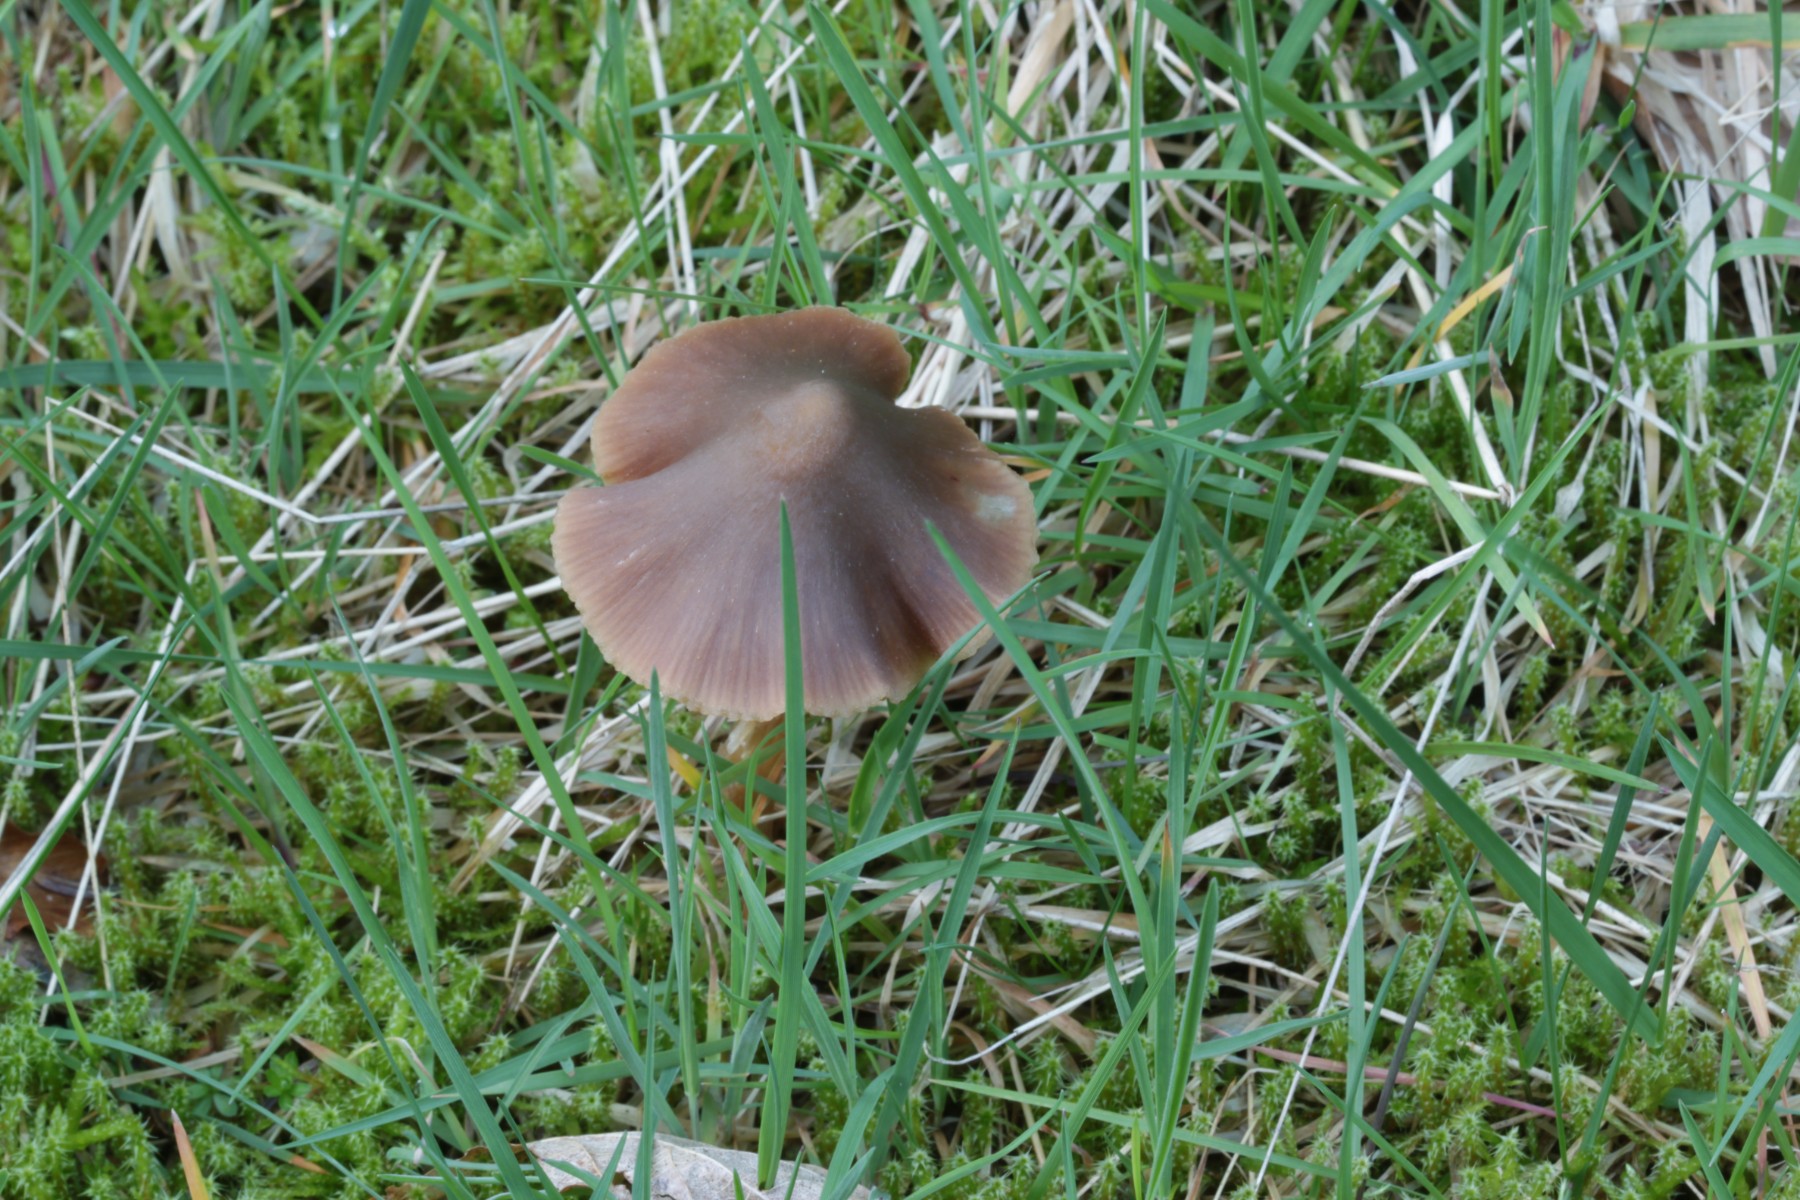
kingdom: Fungi
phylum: Basidiomycota
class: Agaricomycetes
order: Agaricales
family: Entolomataceae
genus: Entoloma
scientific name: Entoloma
